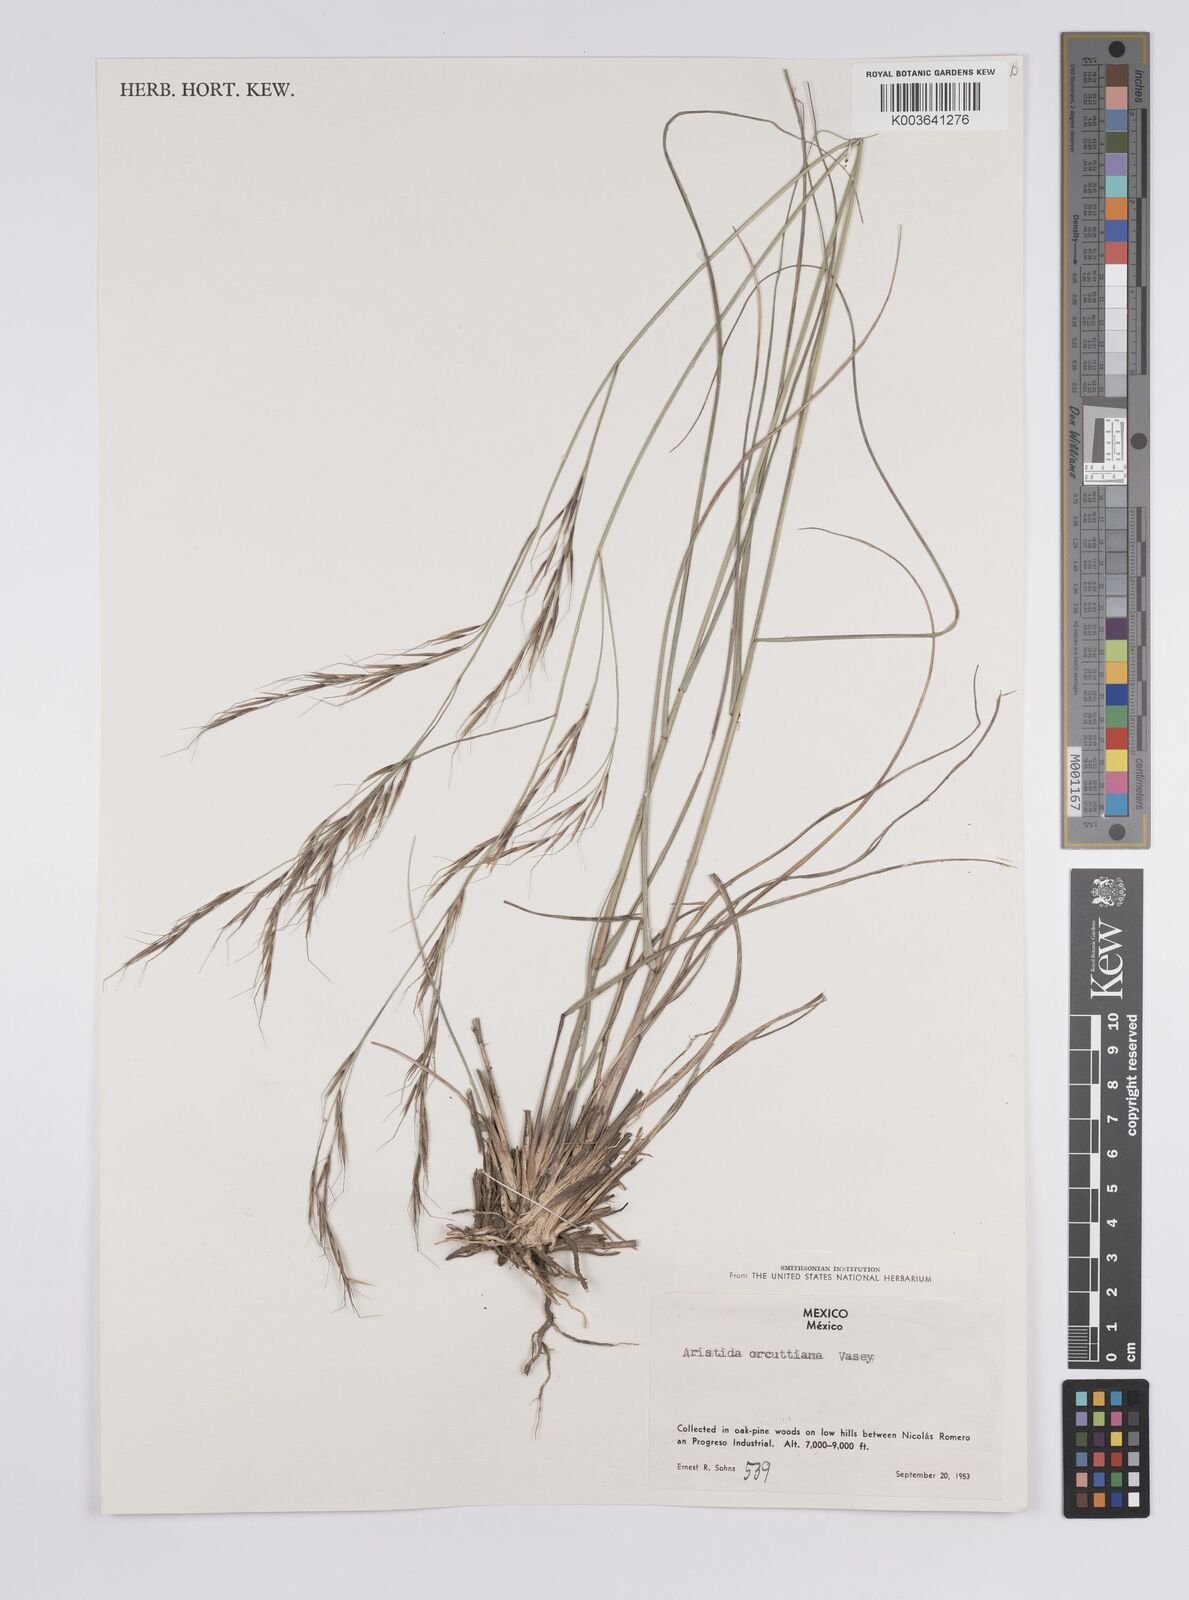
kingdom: Plantae
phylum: Tracheophyta
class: Liliopsida
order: Poales
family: Poaceae
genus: Aristida
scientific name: Aristida schiedeana
